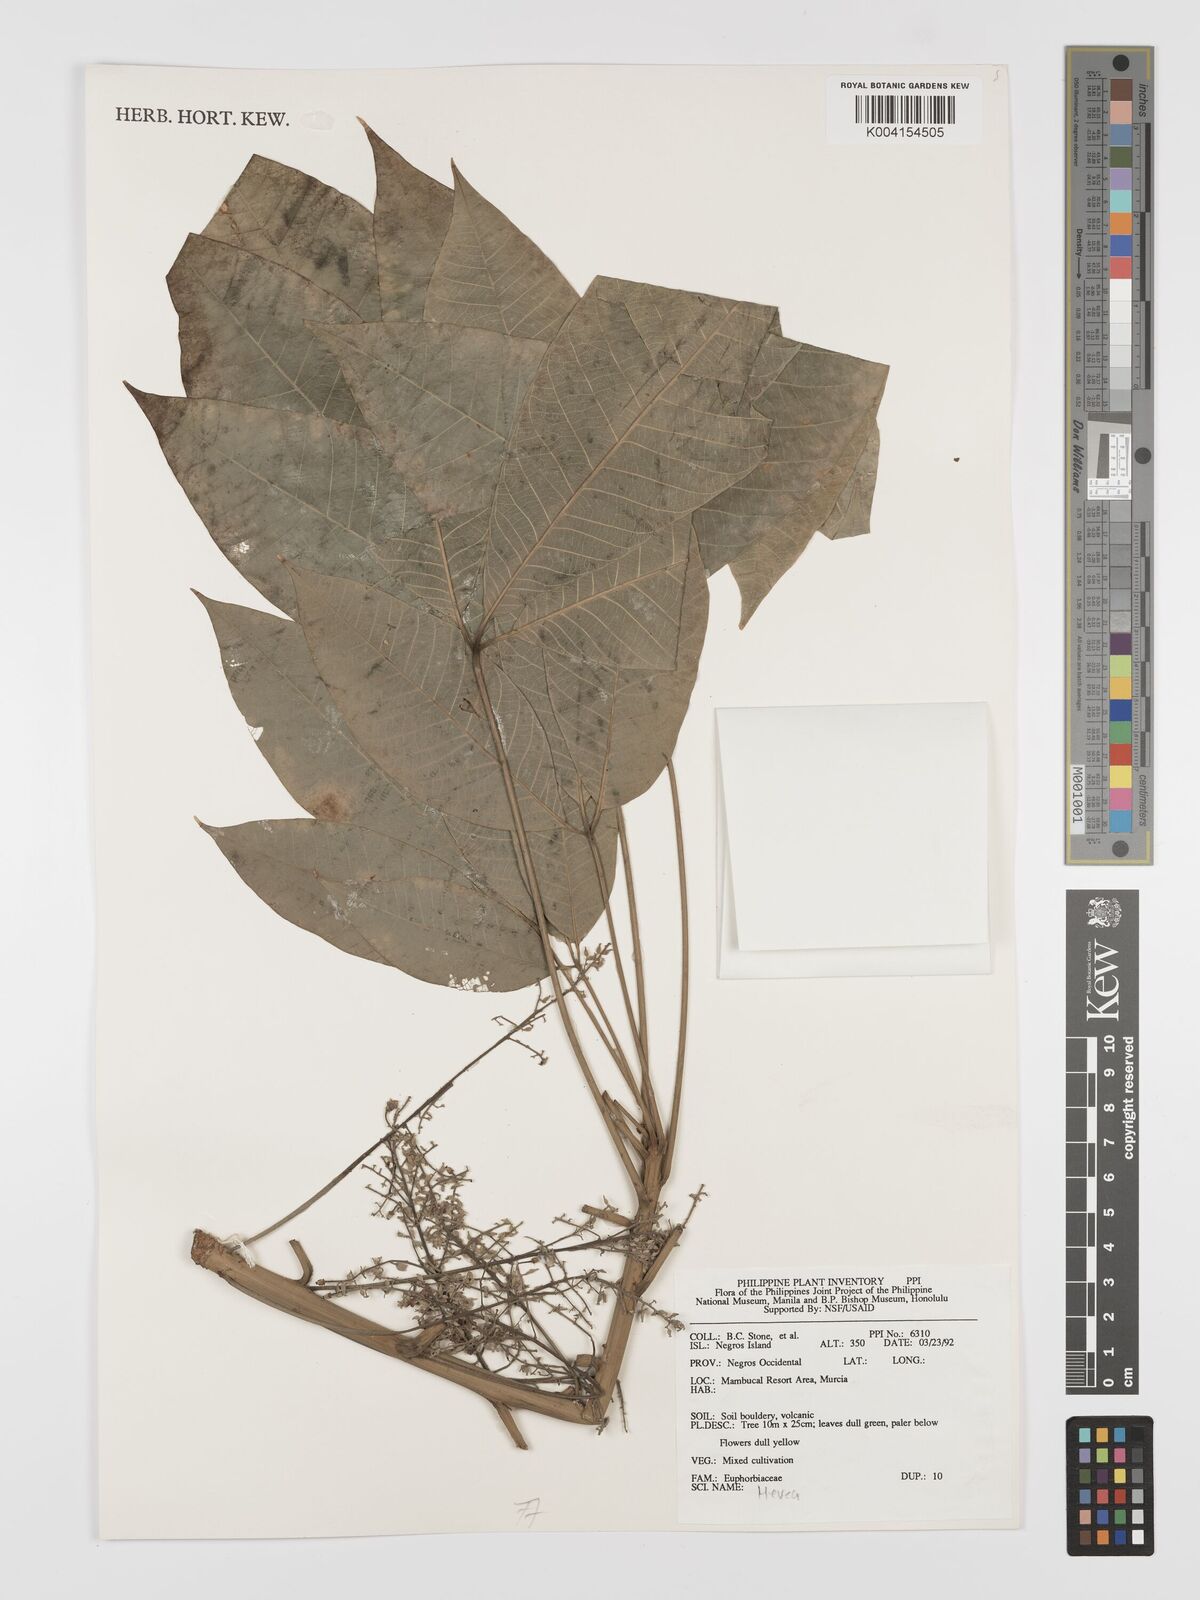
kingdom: Plantae
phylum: Tracheophyta
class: Magnoliopsida
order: Malpighiales
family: Euphorbiaceae
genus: Hevea
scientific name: Hevea brasiliensis
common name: Natural rubber
